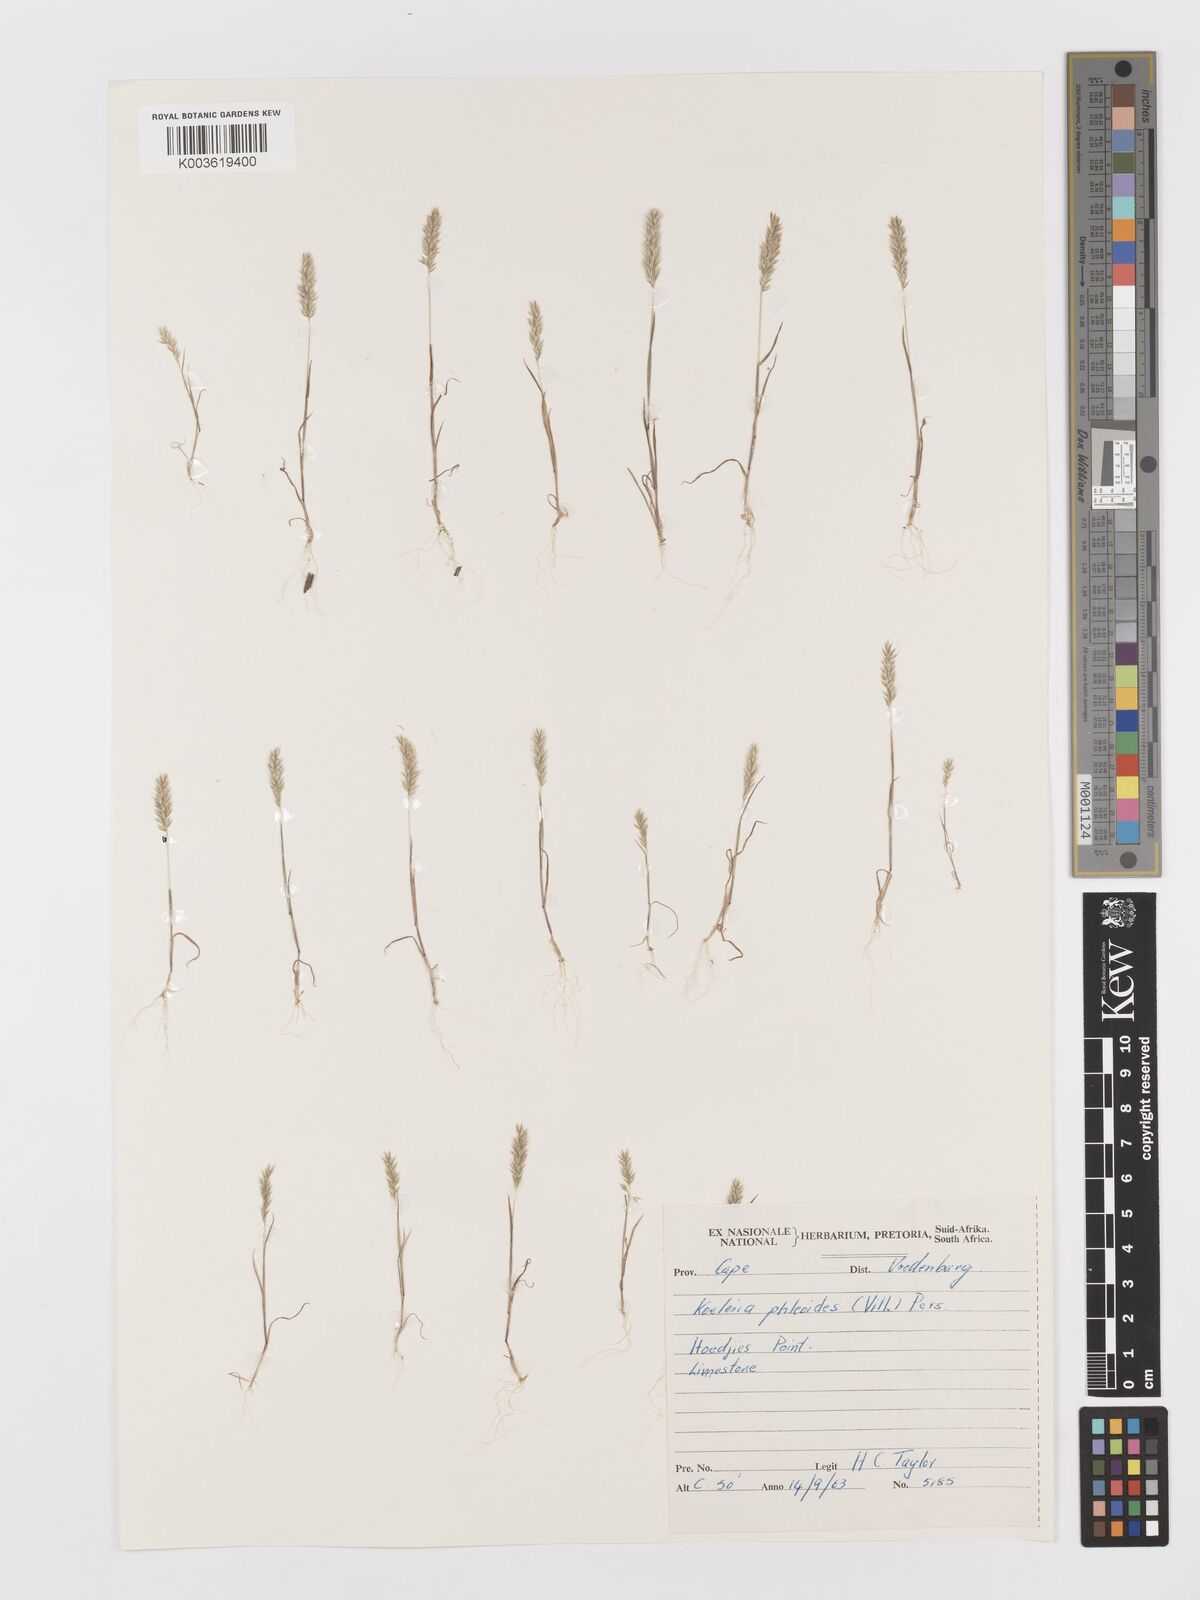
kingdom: Plantae
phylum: Tracheophyta
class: Liliopsida
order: Poales
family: Poaceae
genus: Rostraria
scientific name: Rostraria cristata
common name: Mediterranean hair-grass
